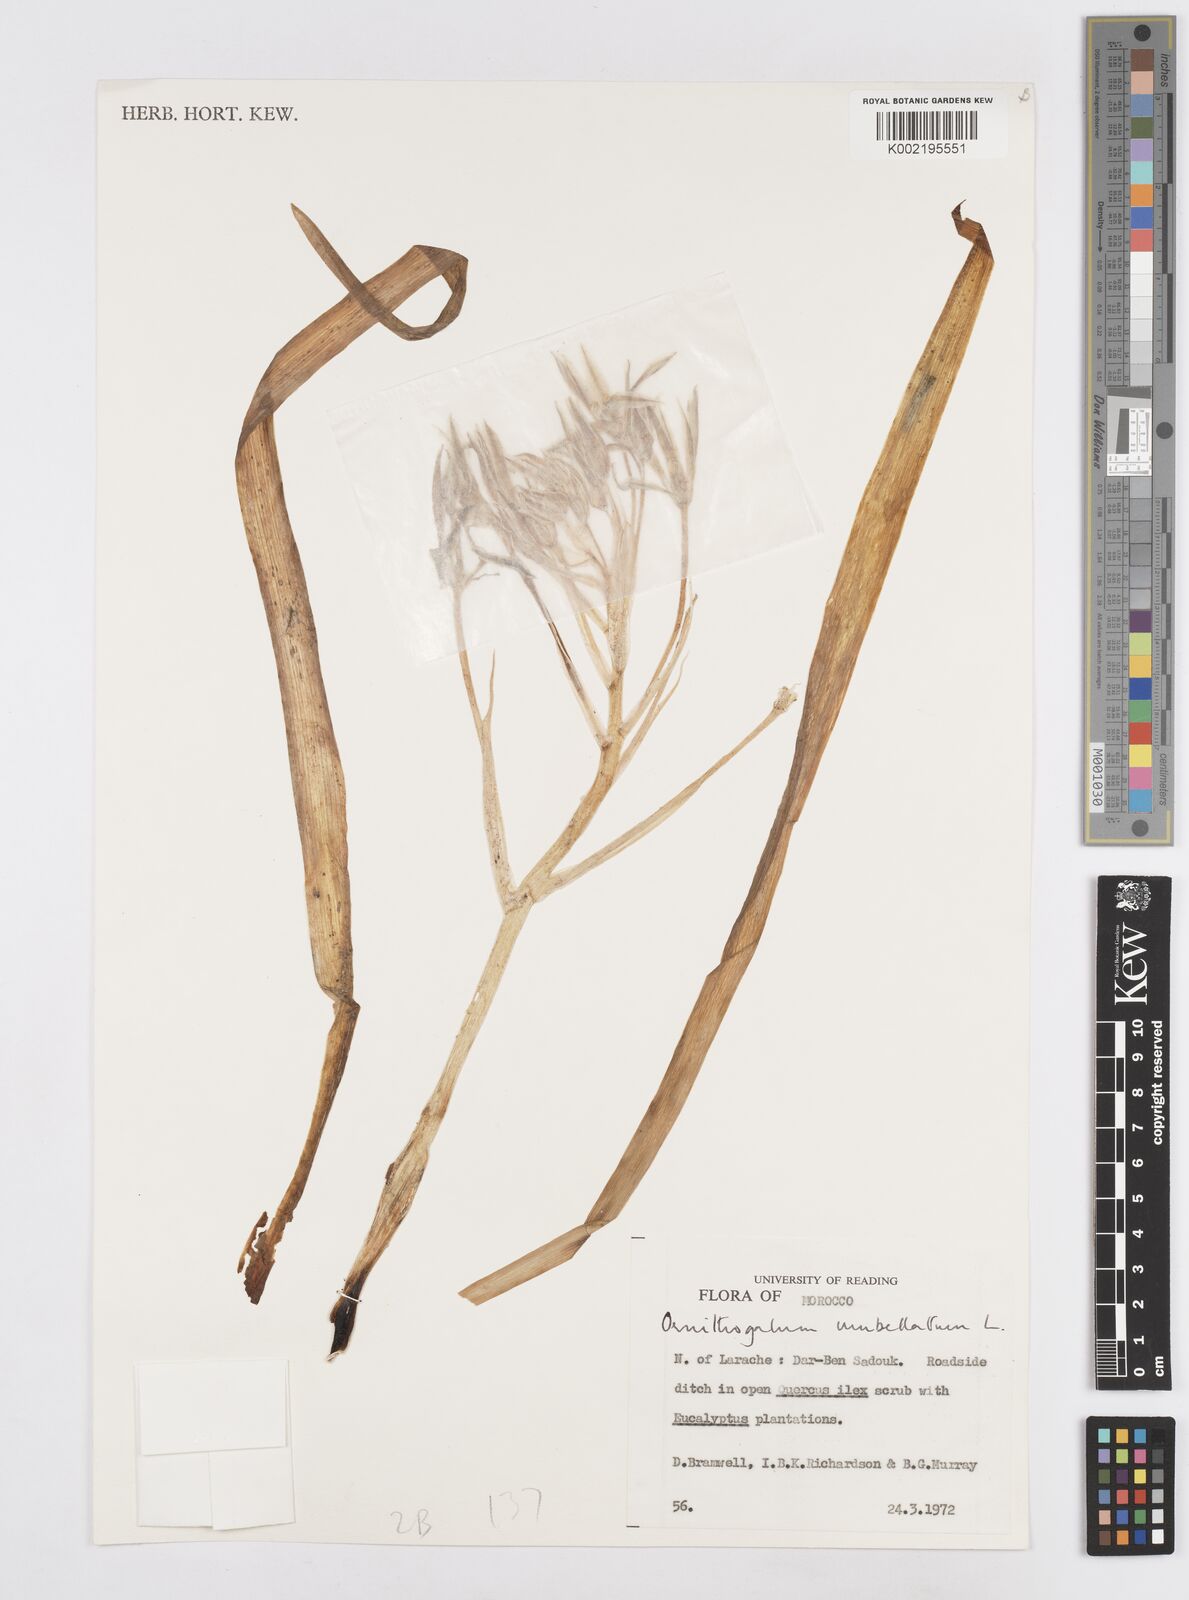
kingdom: Plantae
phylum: Tracheophyta
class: Liliopsida
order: Asparagales
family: Asparagaceae
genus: Ornithogalum
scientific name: Ornithogalum umbellatum
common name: Garden star-of-bethlehem
